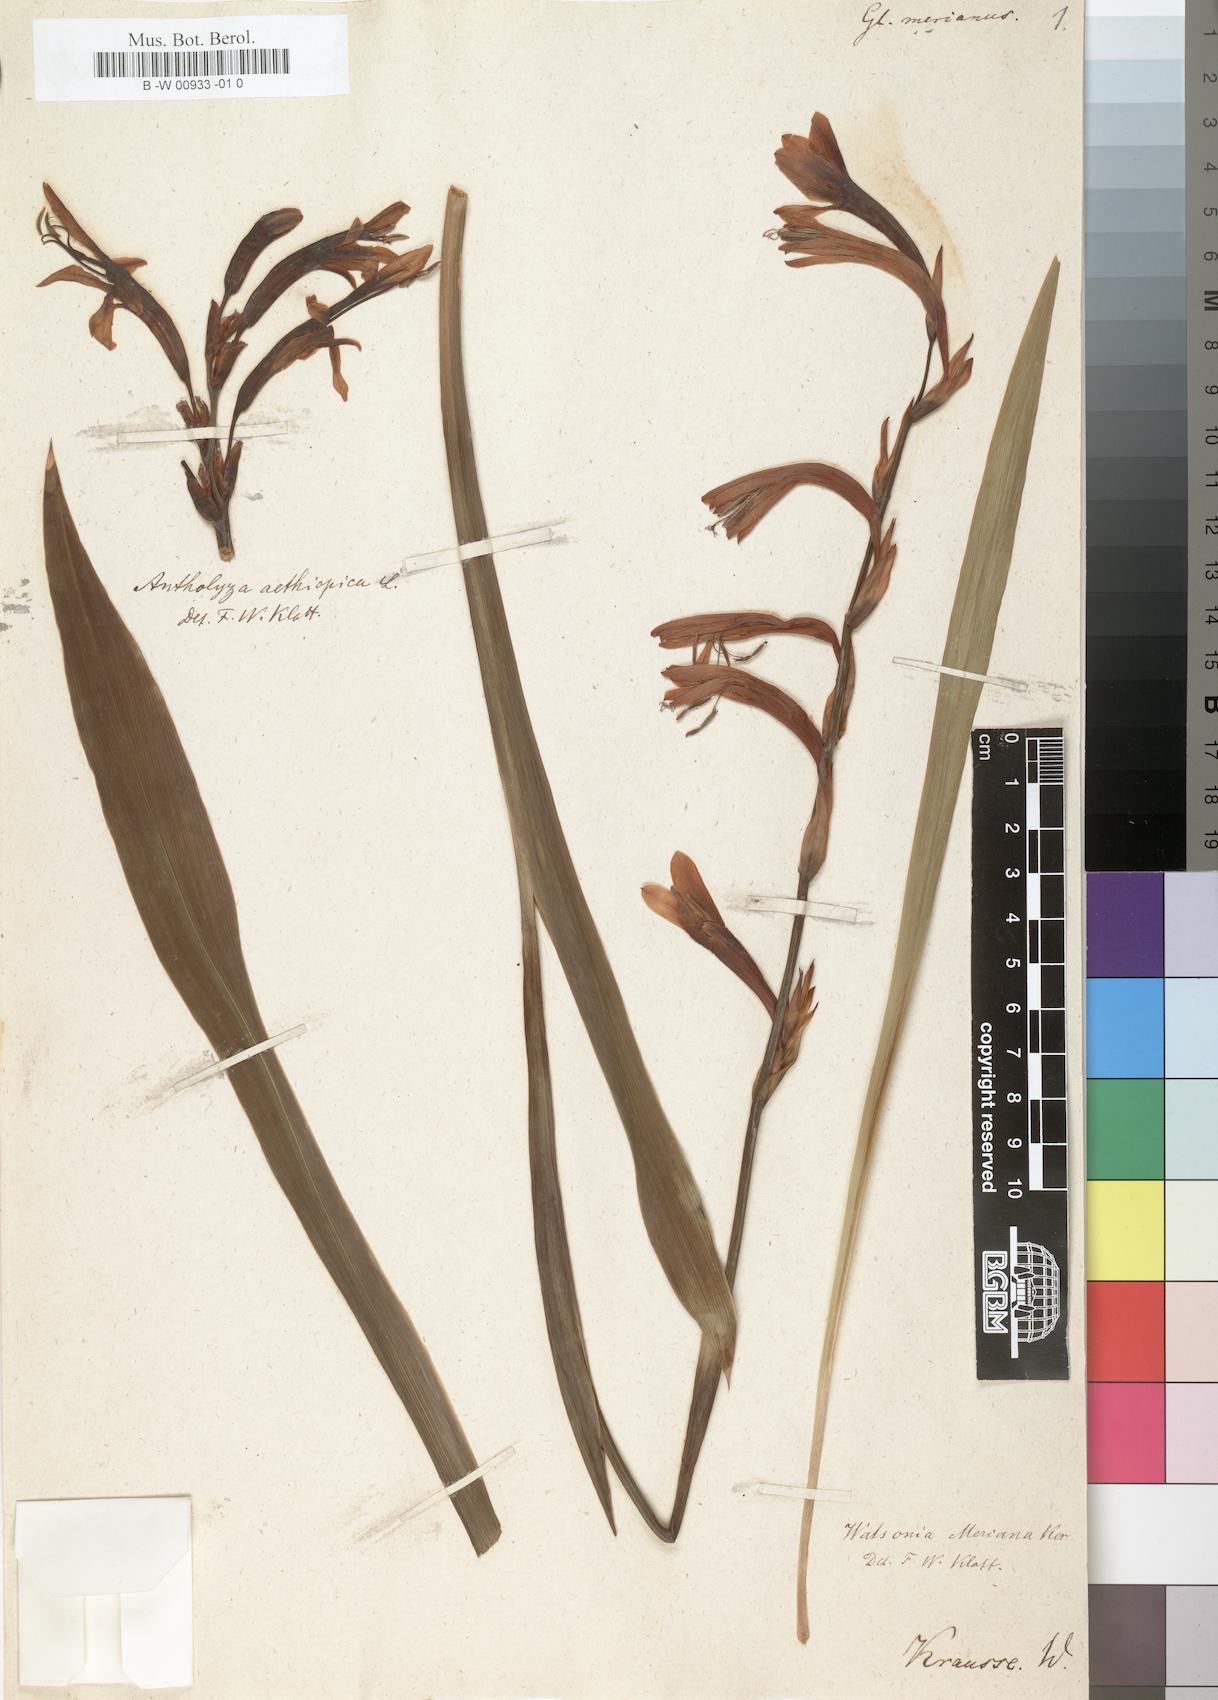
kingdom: Plantae
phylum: Tracheophyta
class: Liliopsida
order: Asparagales
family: Iridaceae
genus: Watsonia
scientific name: Watsonia meriana
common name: Bulbil bugle-lily
